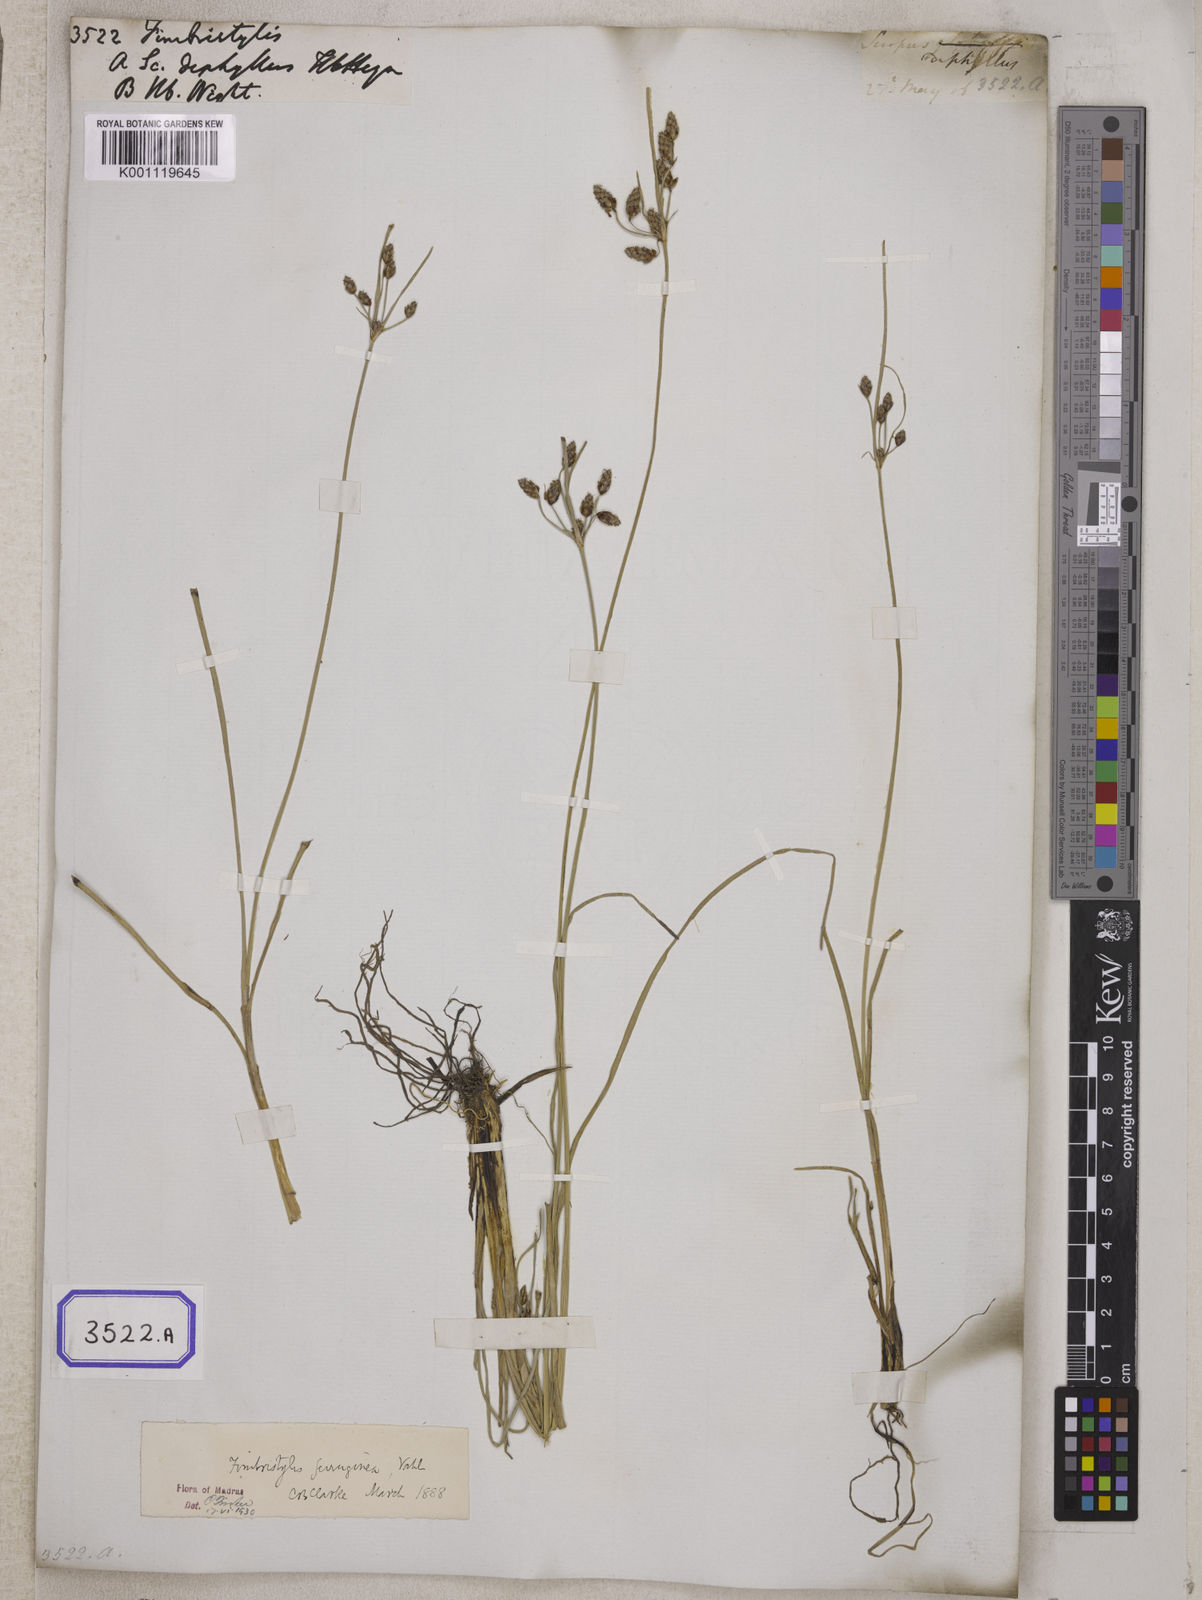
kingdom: Plantae
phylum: Tracheophyta
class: Liliopsida
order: Poales
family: Cyperaceae
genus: Fimbristylis
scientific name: Fimbristylis
